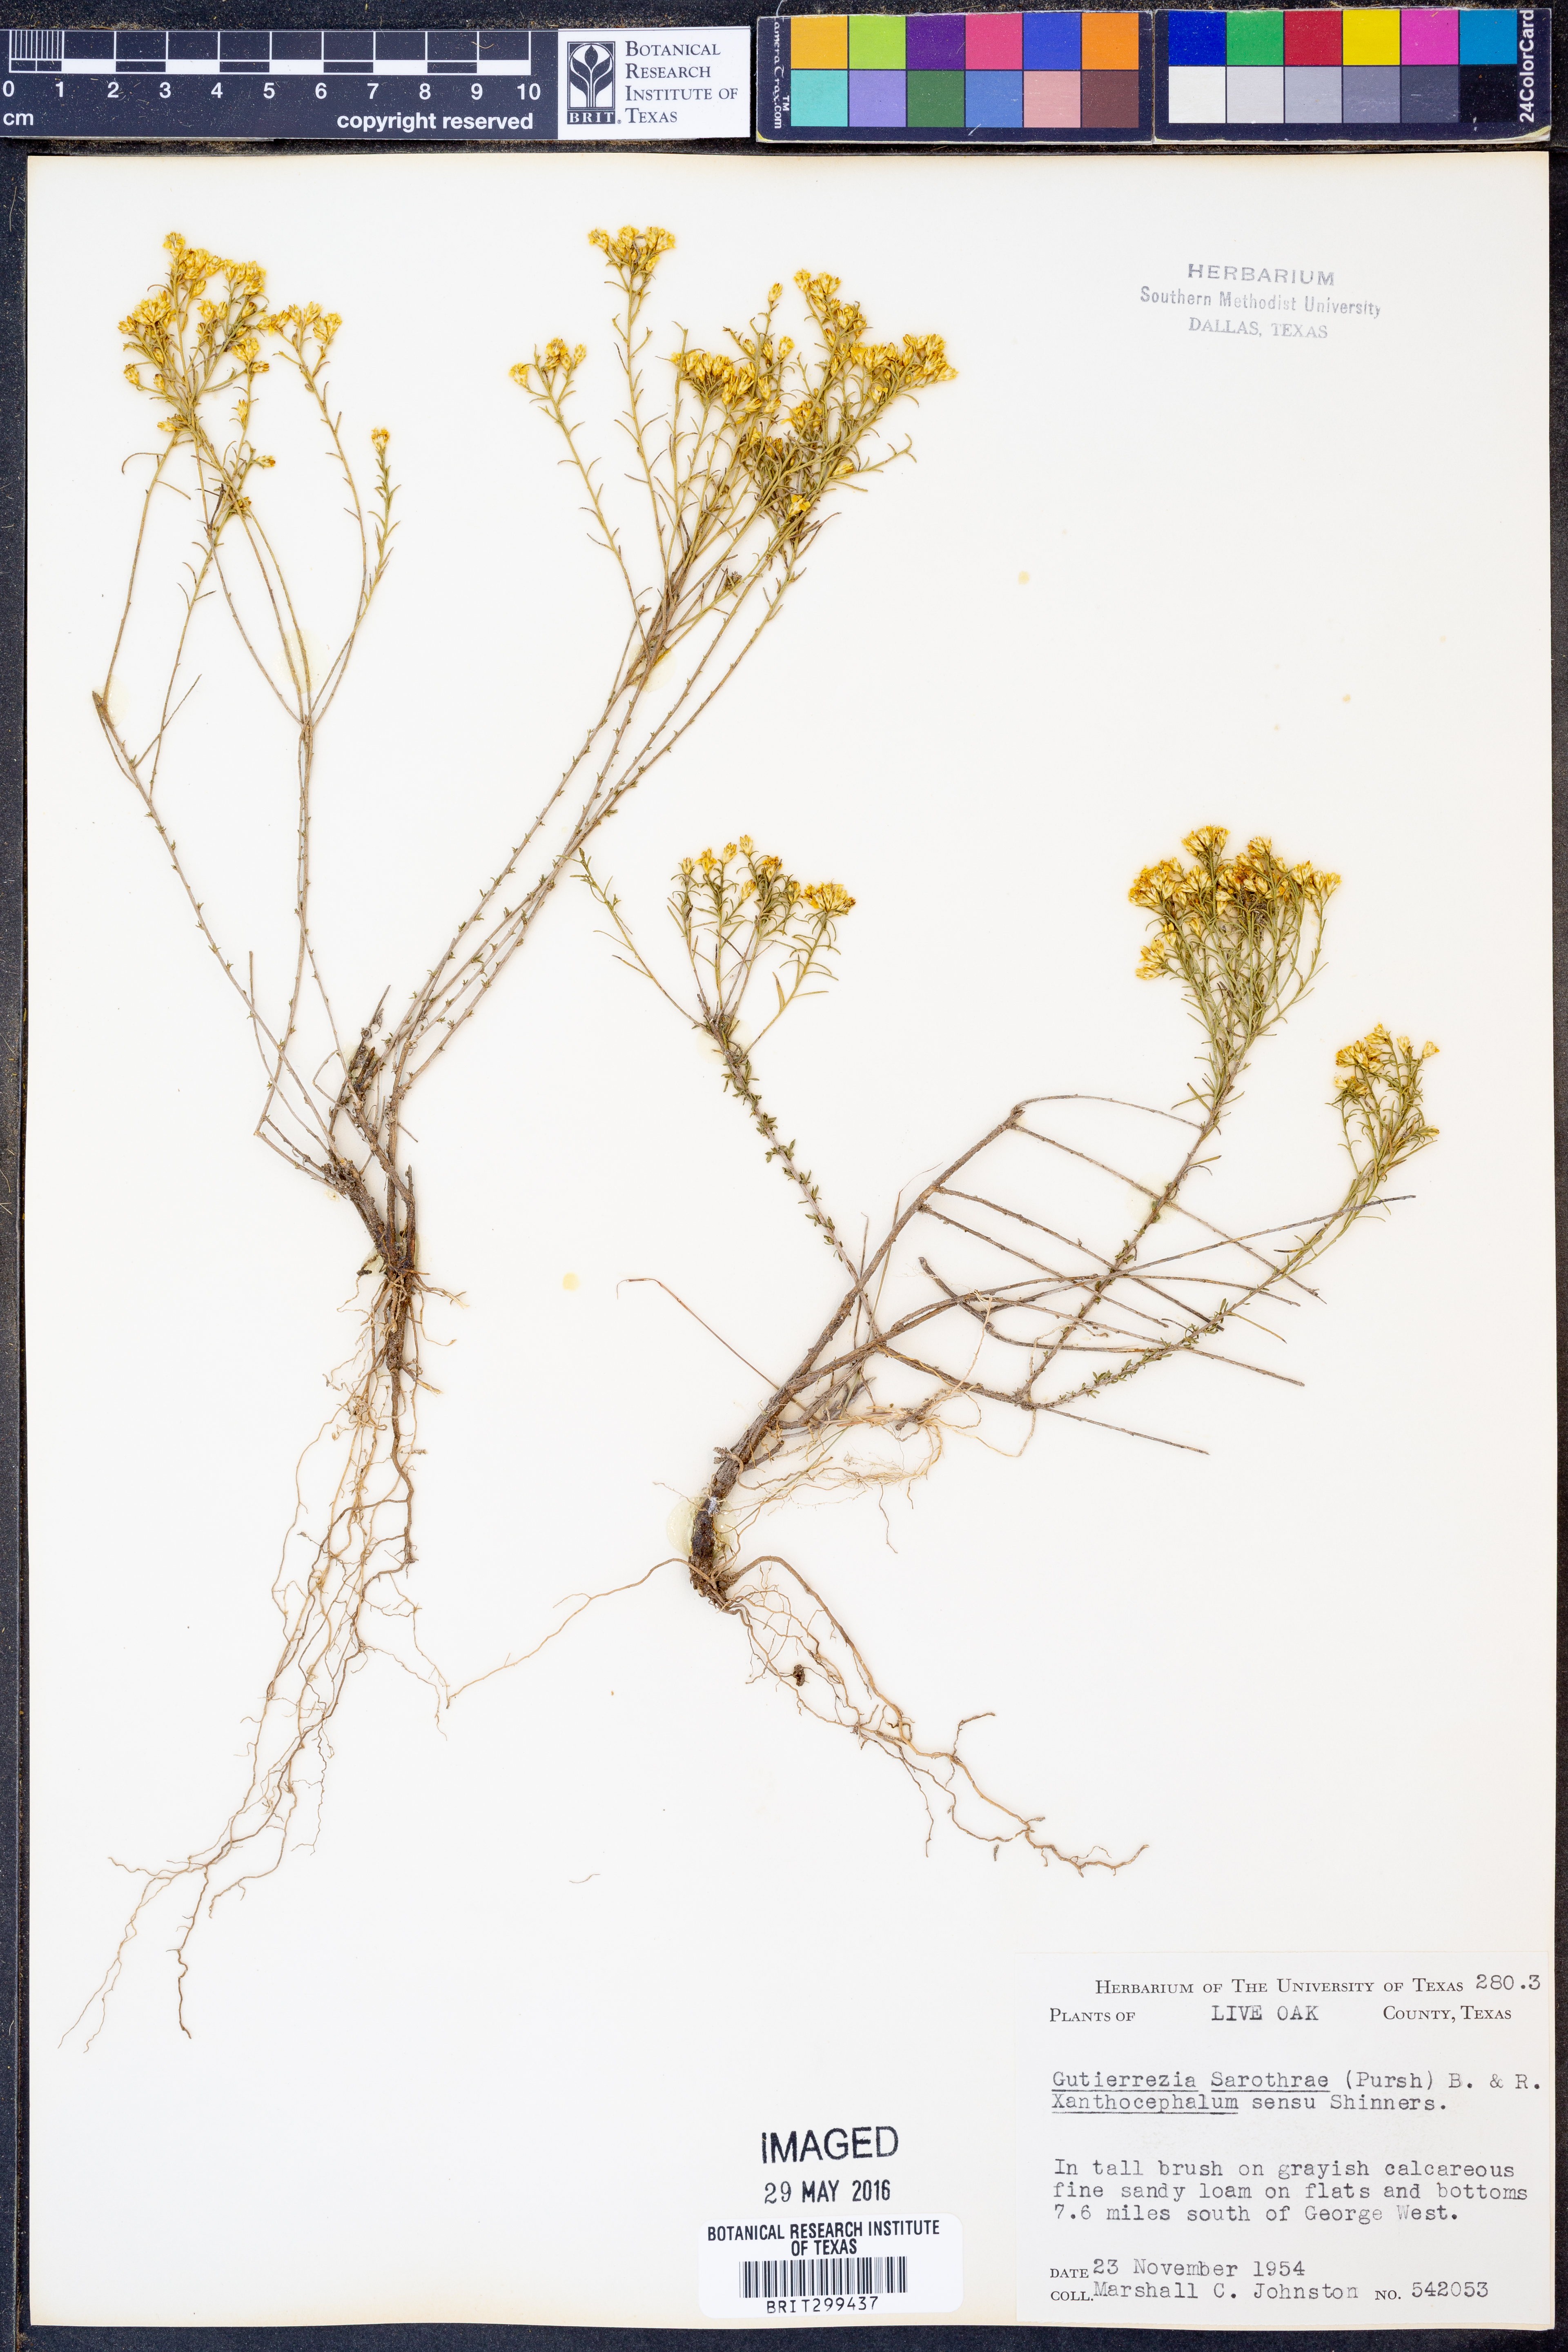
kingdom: Plantae
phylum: Tracheophyta
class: Magnoliopsida
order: Asterales
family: Asteraceae
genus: Gutierrezia
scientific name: Gutierrezia sarothrae
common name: Broom snakeweed
